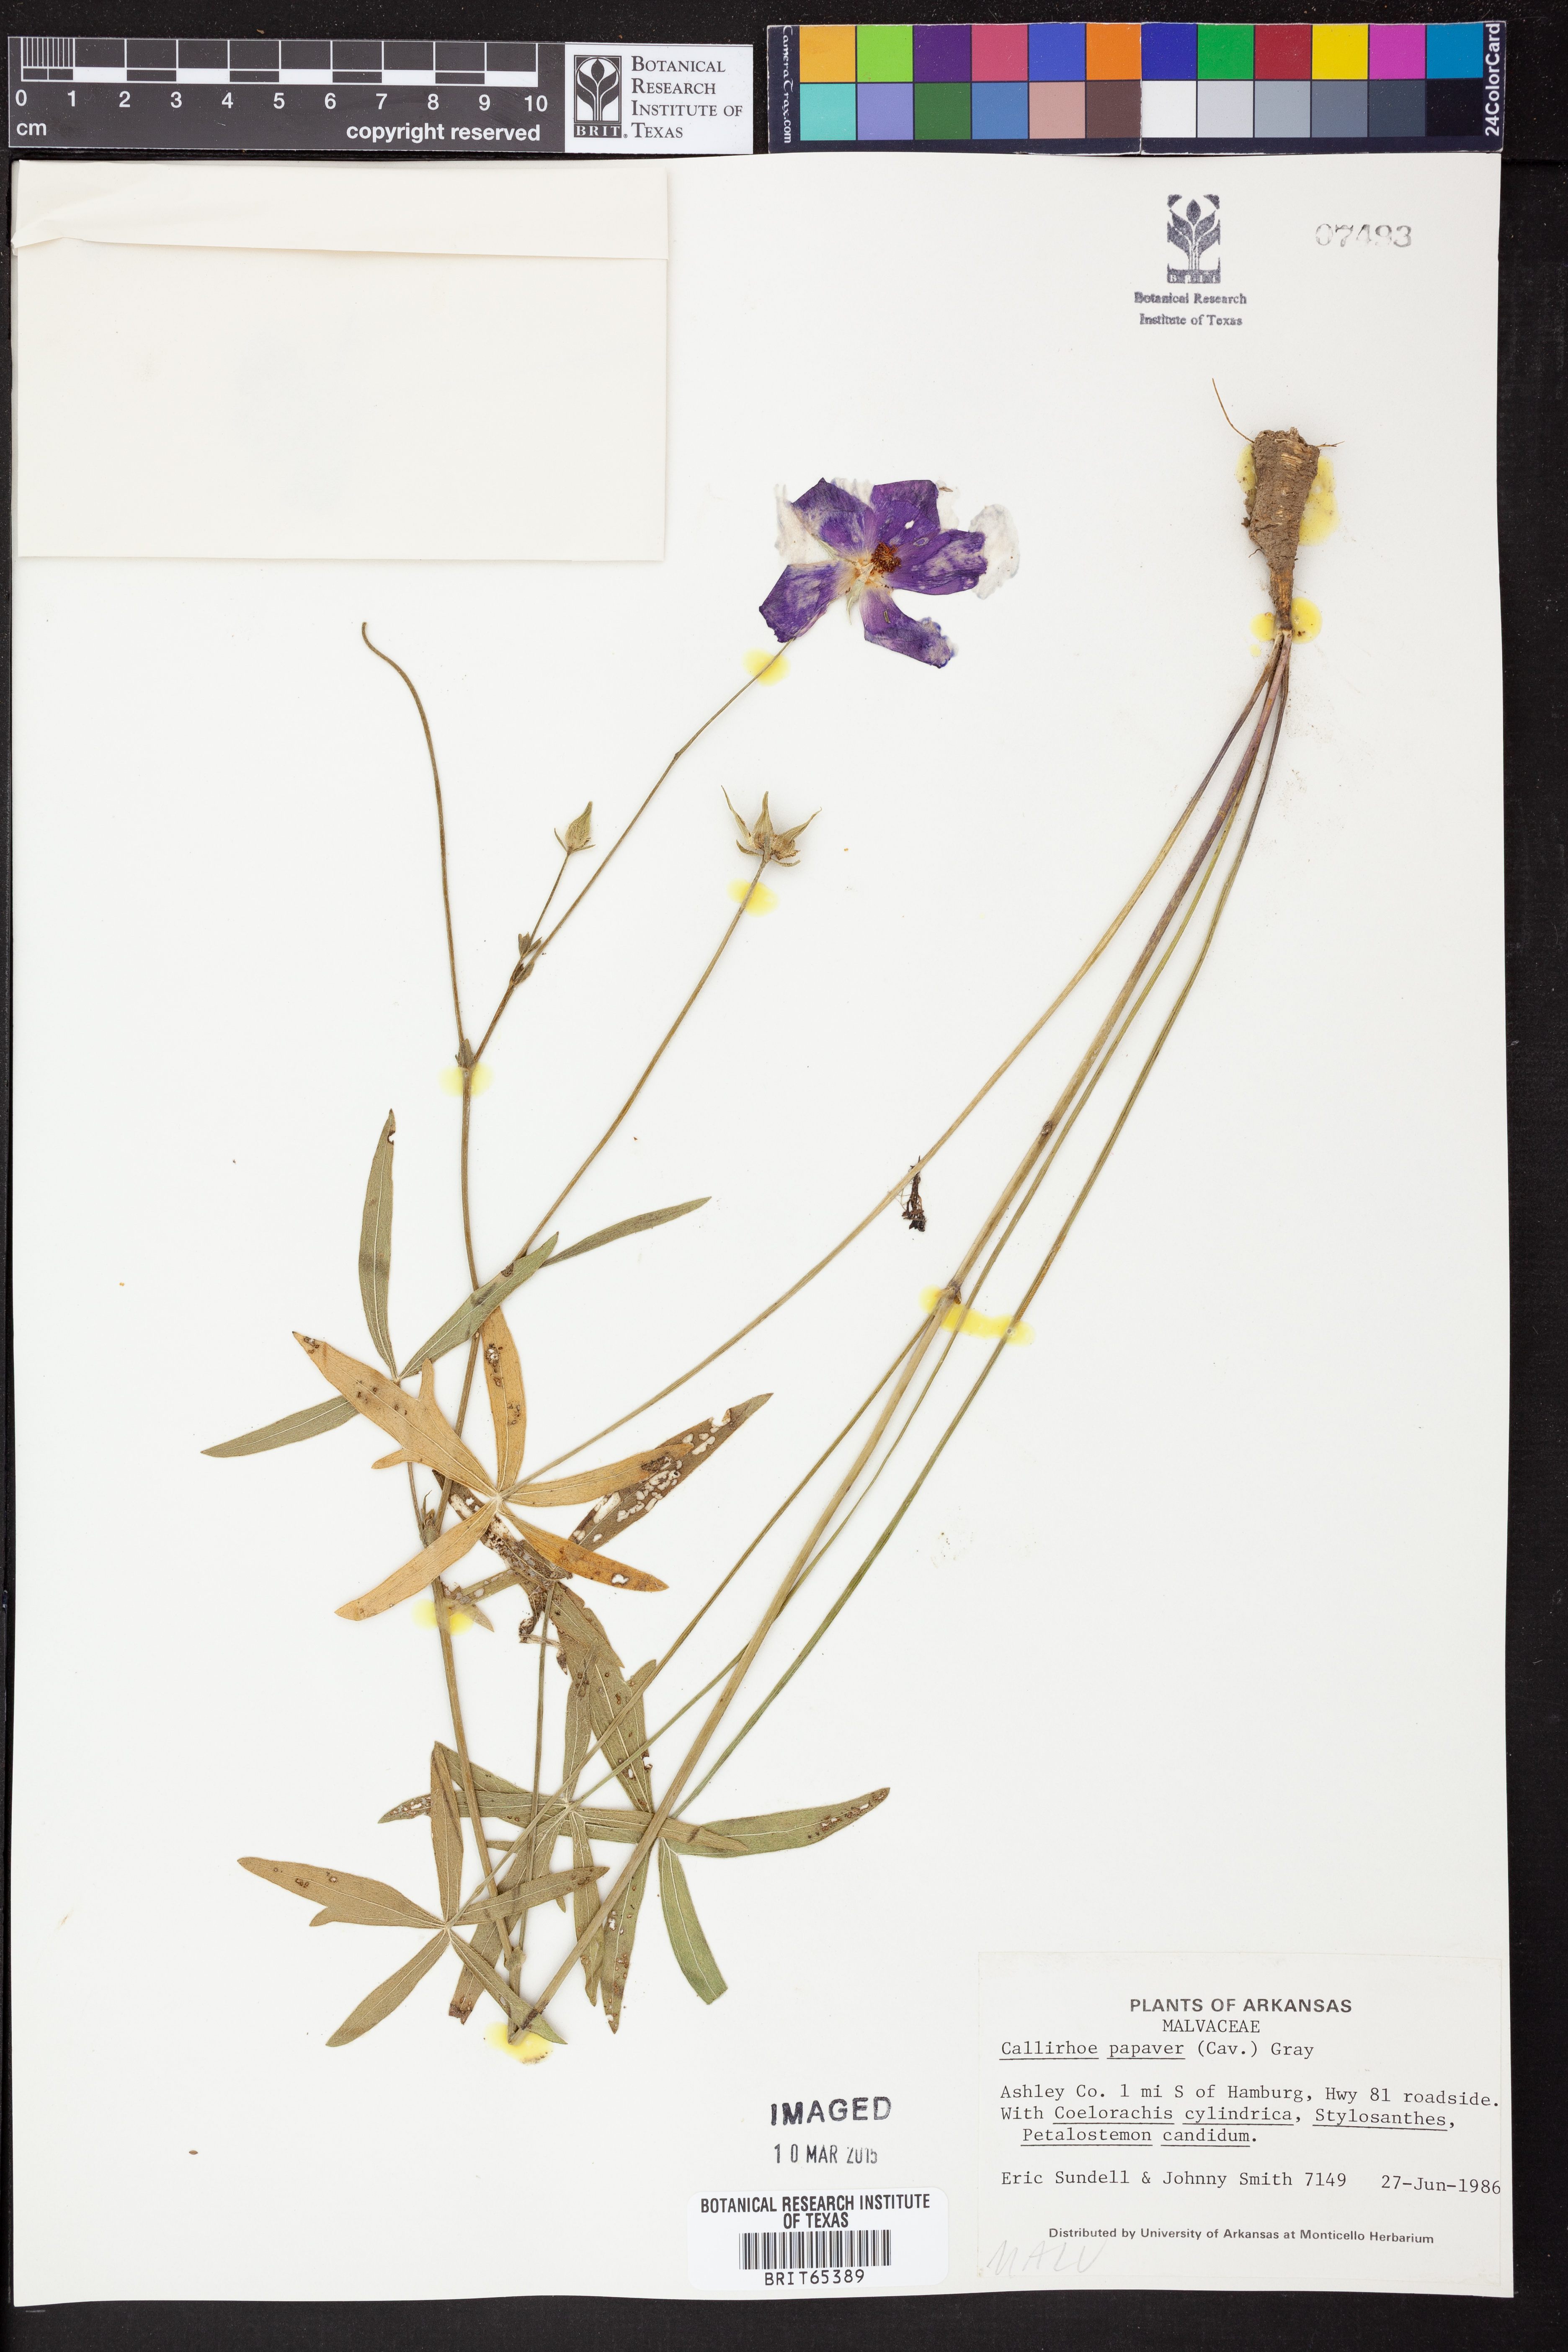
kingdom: Plantae
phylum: Tracheophyta
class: Magnoliopsida
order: Malvales
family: Malvaceae
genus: Callirhoe
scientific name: Callirhoe
